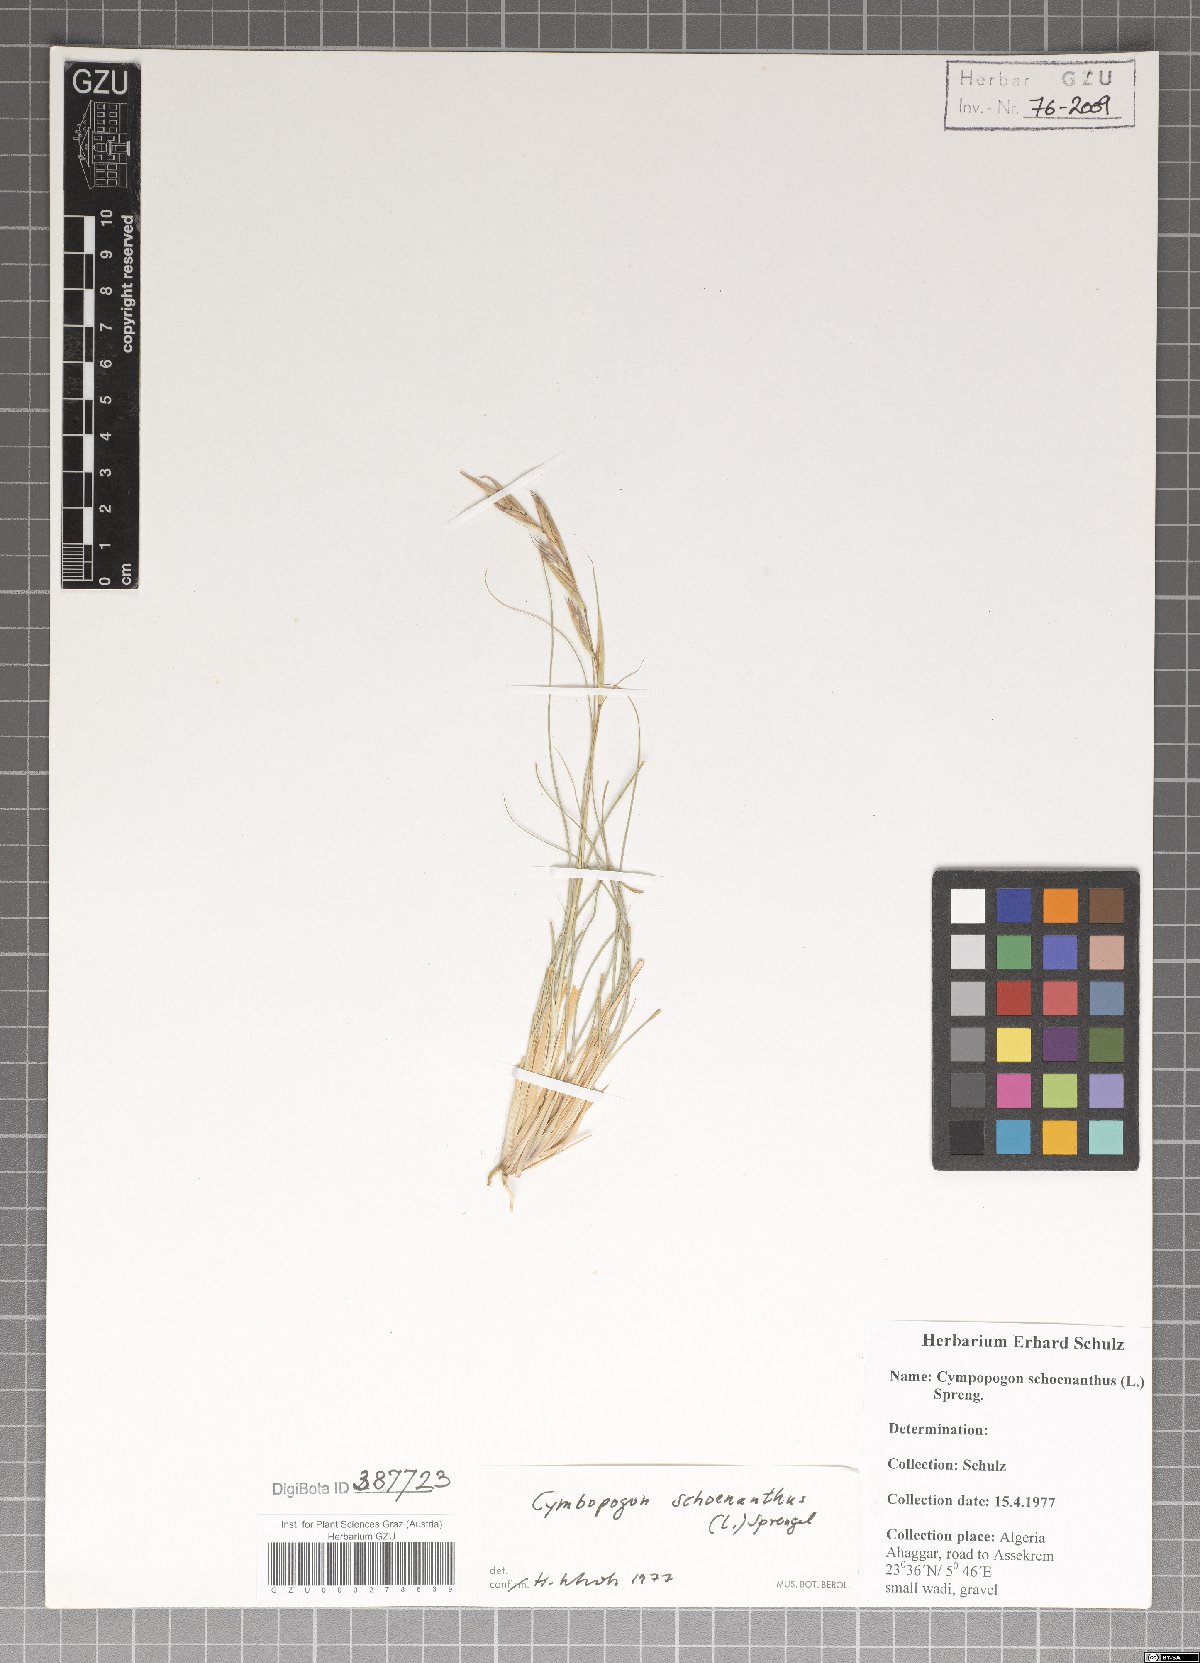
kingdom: Plantae
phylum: Tracheophyta
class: Liliopsida
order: Poales
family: Poaceae
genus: Cymbopogon
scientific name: Cymbopogon schoenanthus
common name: Geranium grass
